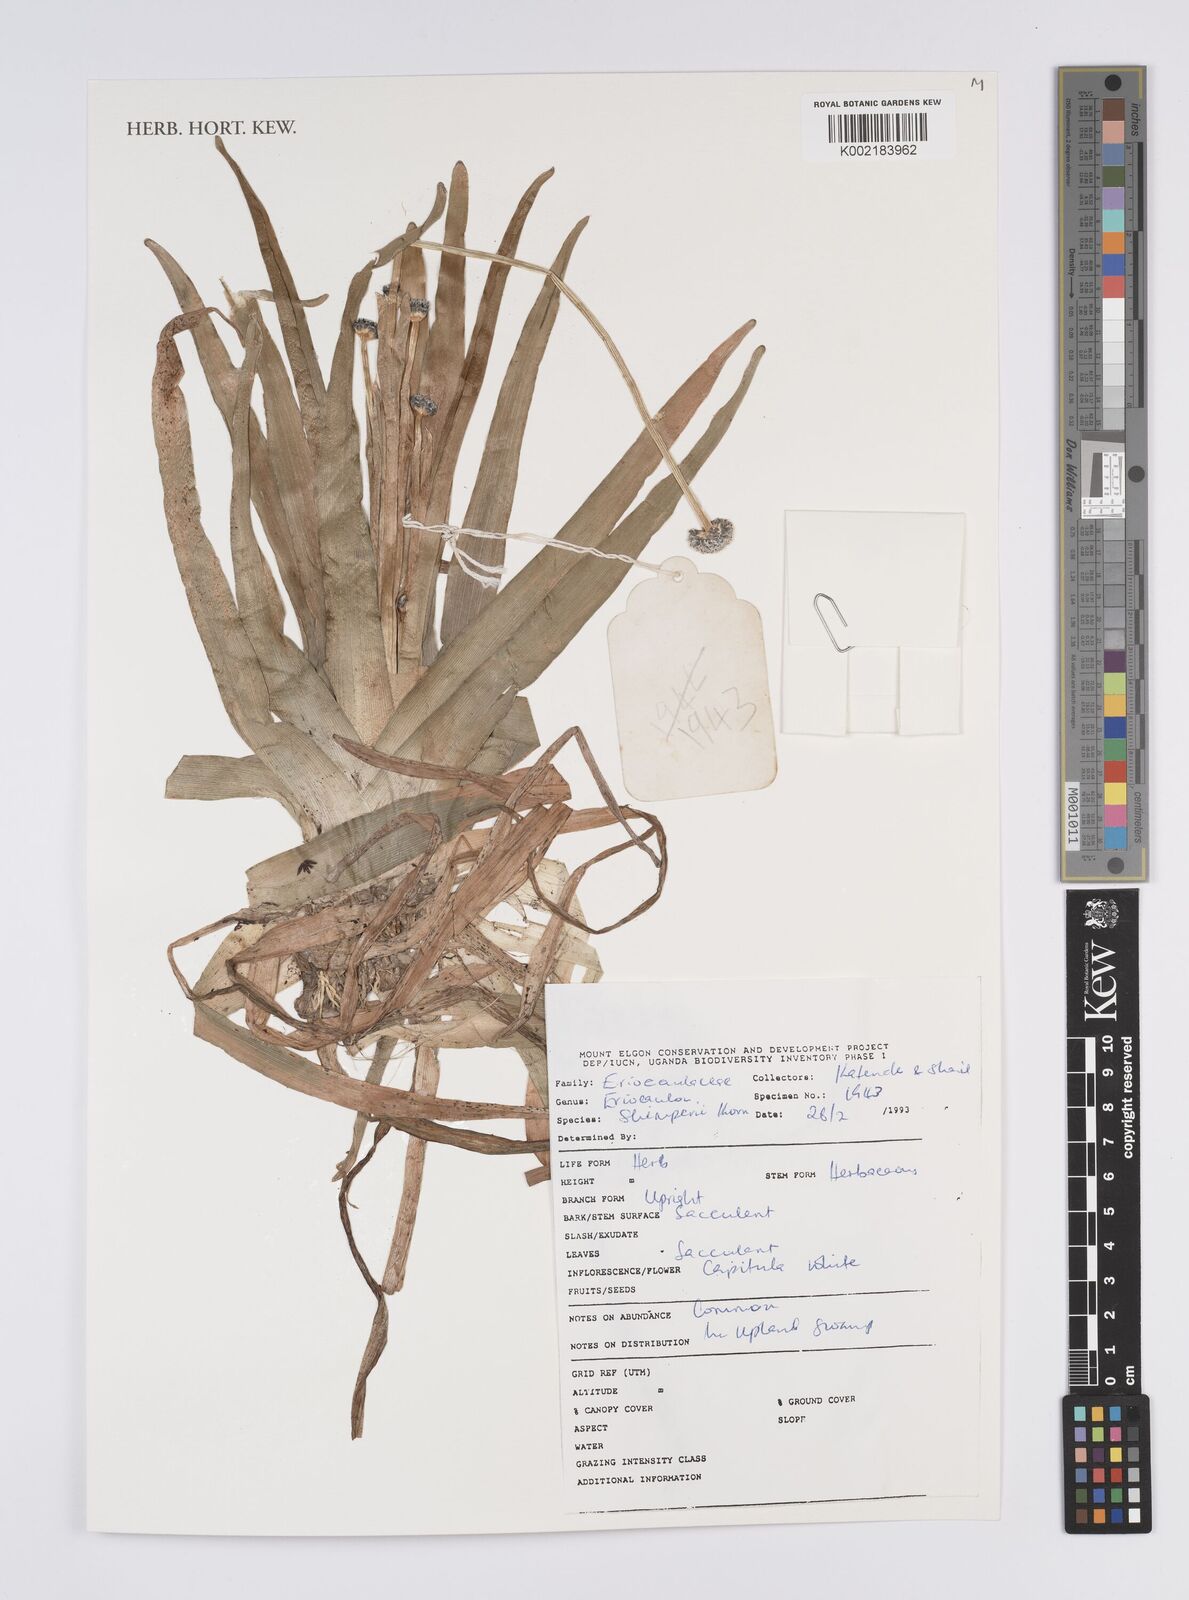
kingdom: Plantae
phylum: Tracheophyta
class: Liliopsida
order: Poales
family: Eriocaulaceae
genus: Eriocaulon
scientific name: Eriocaulon schimperi
